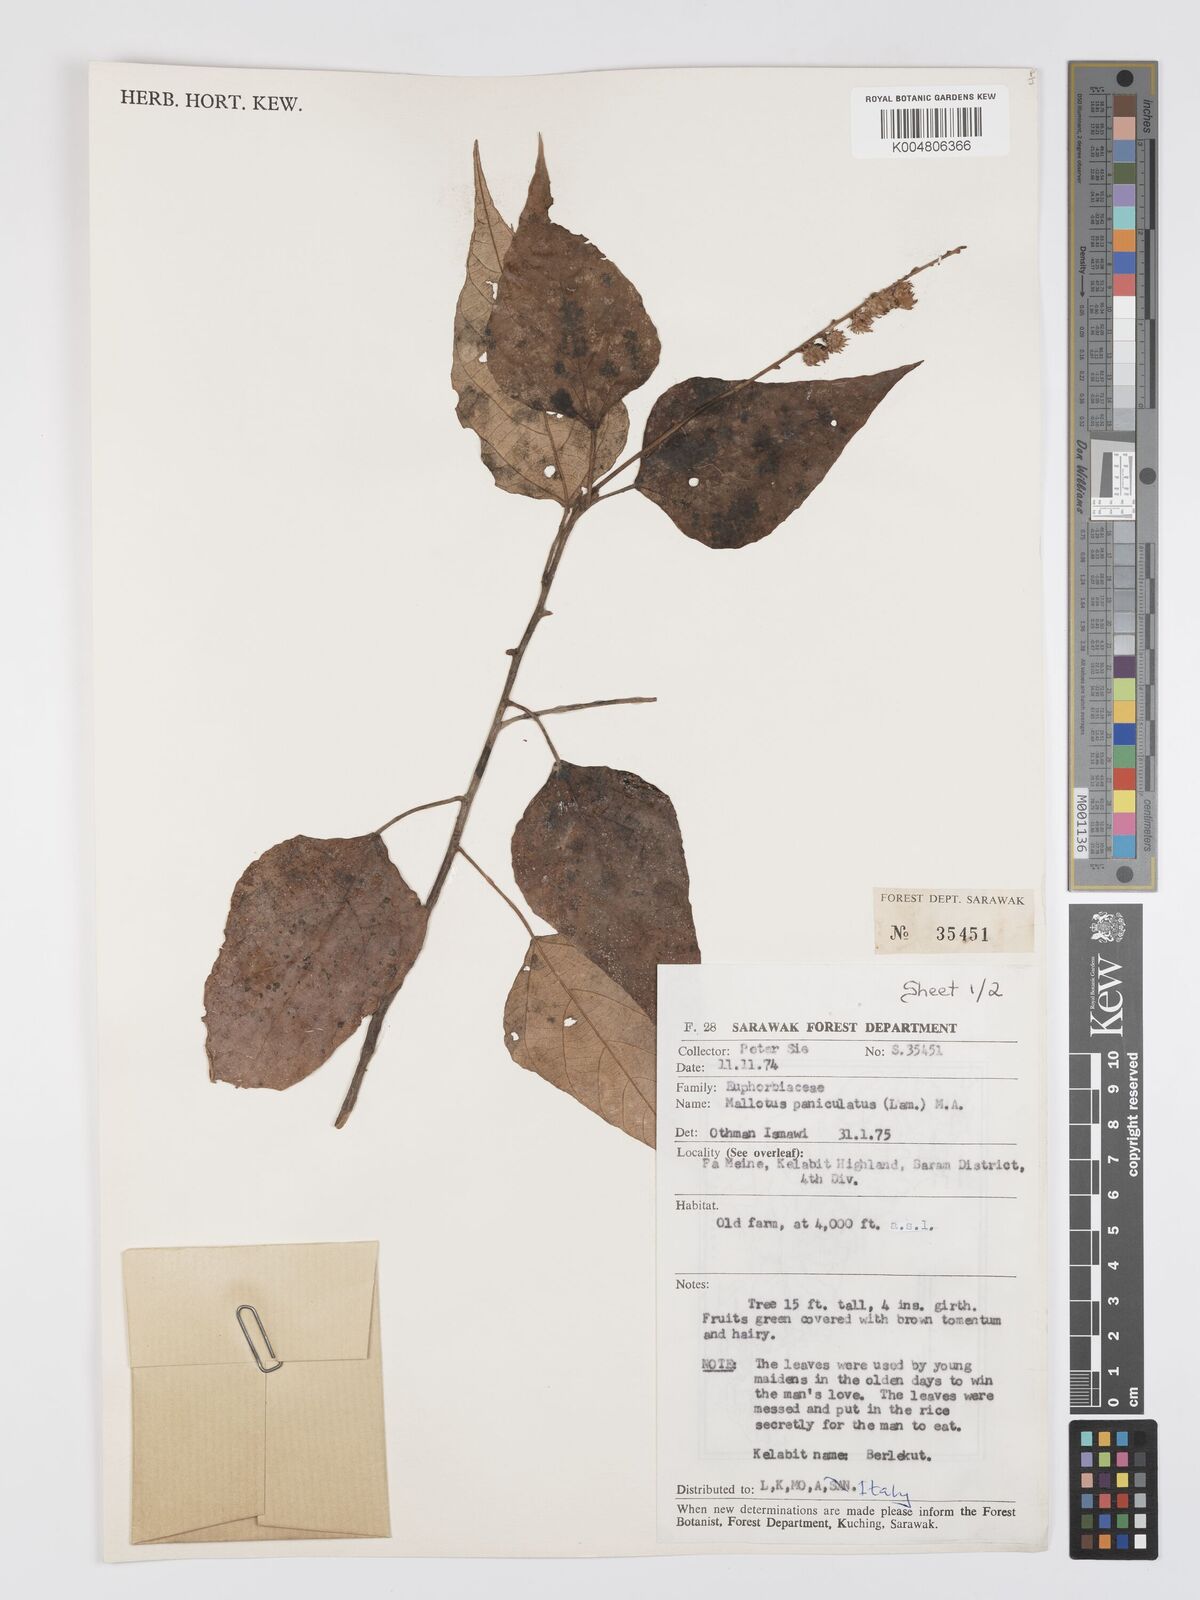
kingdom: Plantae
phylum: Tracheophyta
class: Magnoliopsida
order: Malpighiales
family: Euphorbiaceae
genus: Mallotus
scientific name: Mallotus paniculatus
